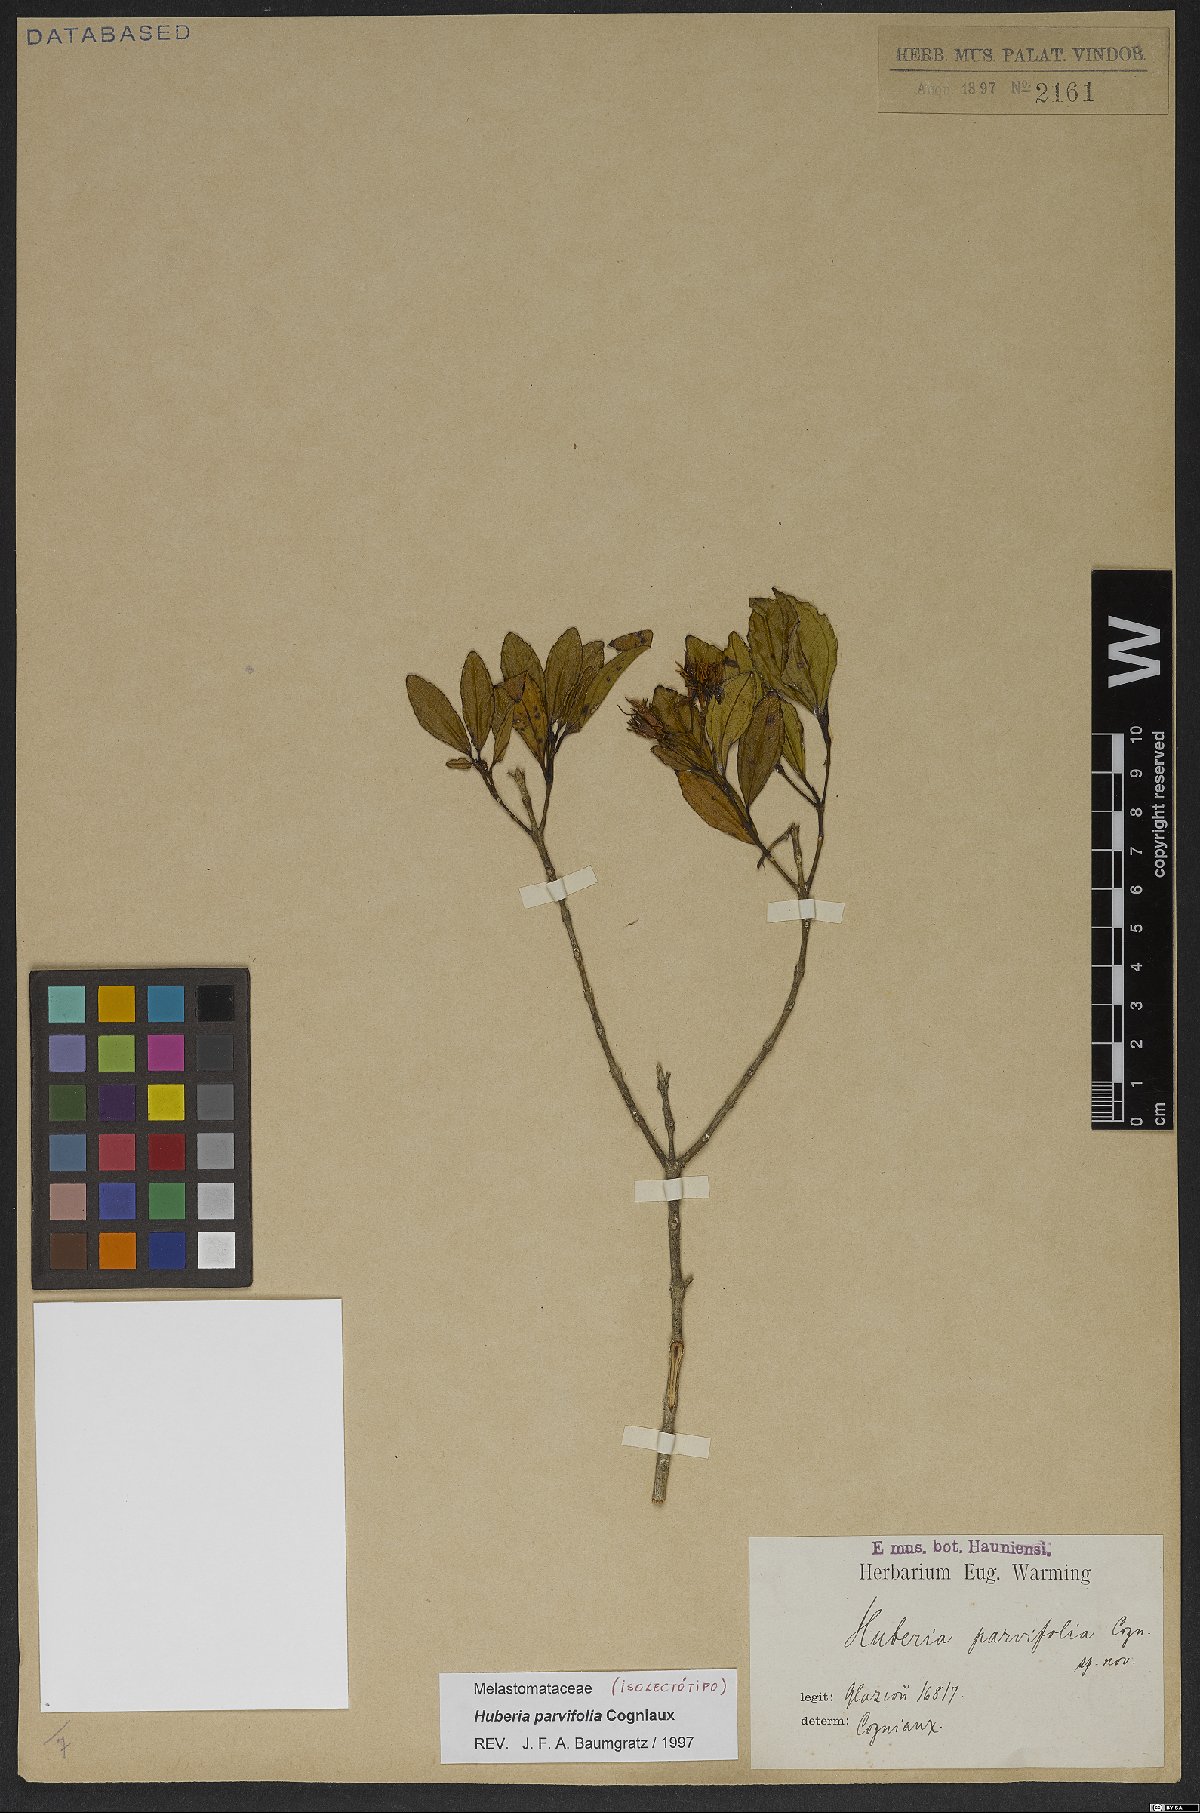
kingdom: Plantae
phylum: Tracheophyta
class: Magnoliopsida
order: Myrtales
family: Melastomataceae
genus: Huberia
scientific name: Huberia parvifolia
